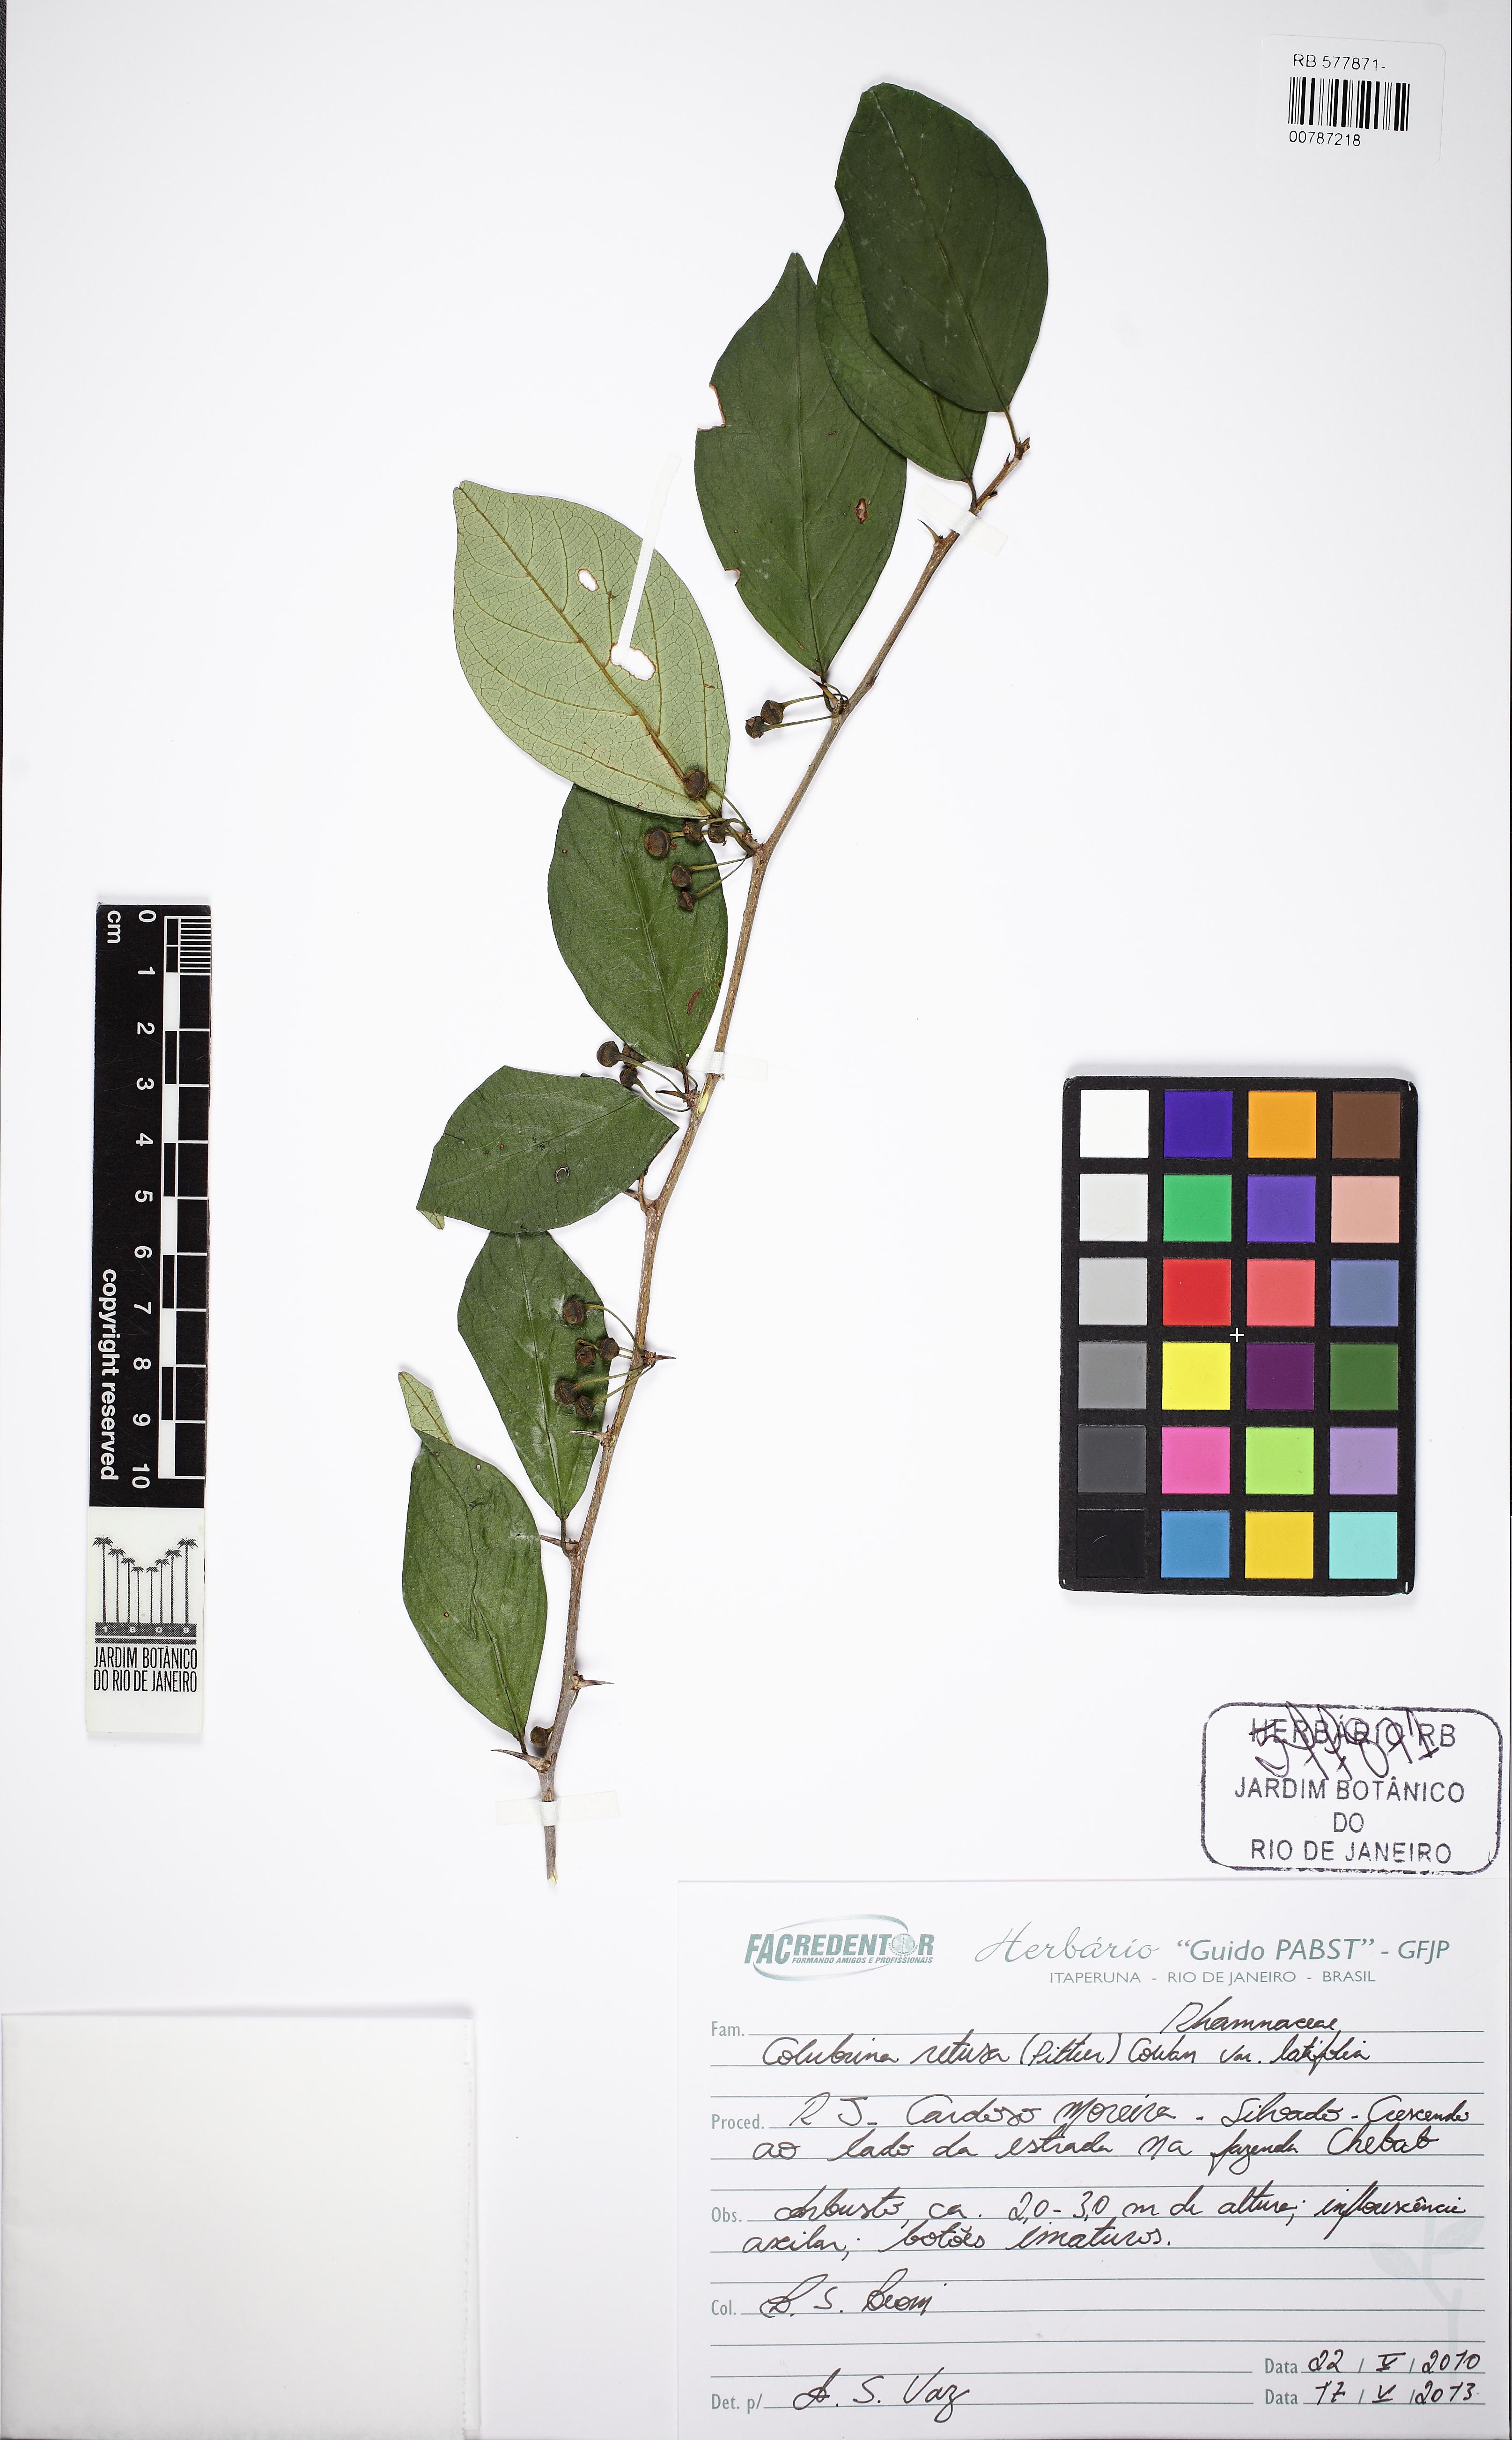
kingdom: Plantae
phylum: Tracheophyta
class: Magnoliopsida
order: Rosales
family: Rhamnaceae
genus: Colubrina
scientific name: Colubrina retusa
